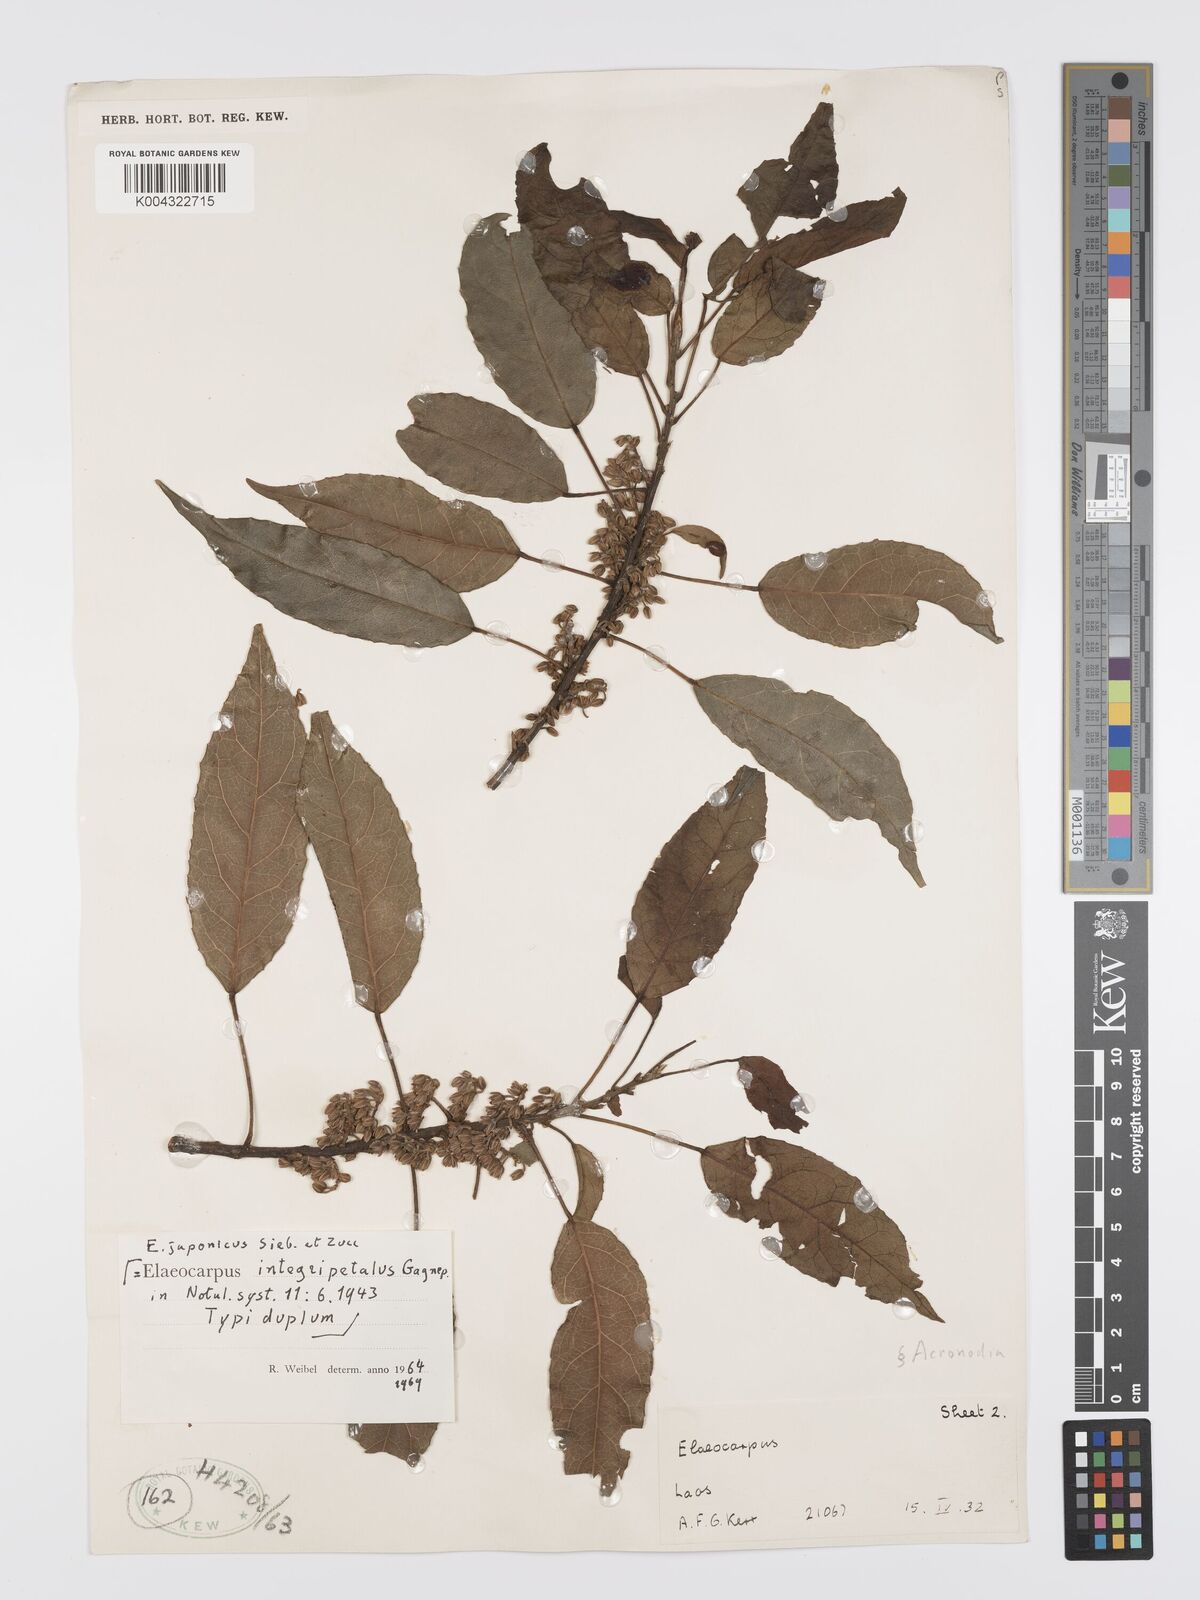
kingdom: Plantae
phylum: Tracheophyta
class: Magnoliopsida
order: Oxalidales
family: Elaeocarpaceae
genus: Elaeocarpus
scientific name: Elaeocarpus
